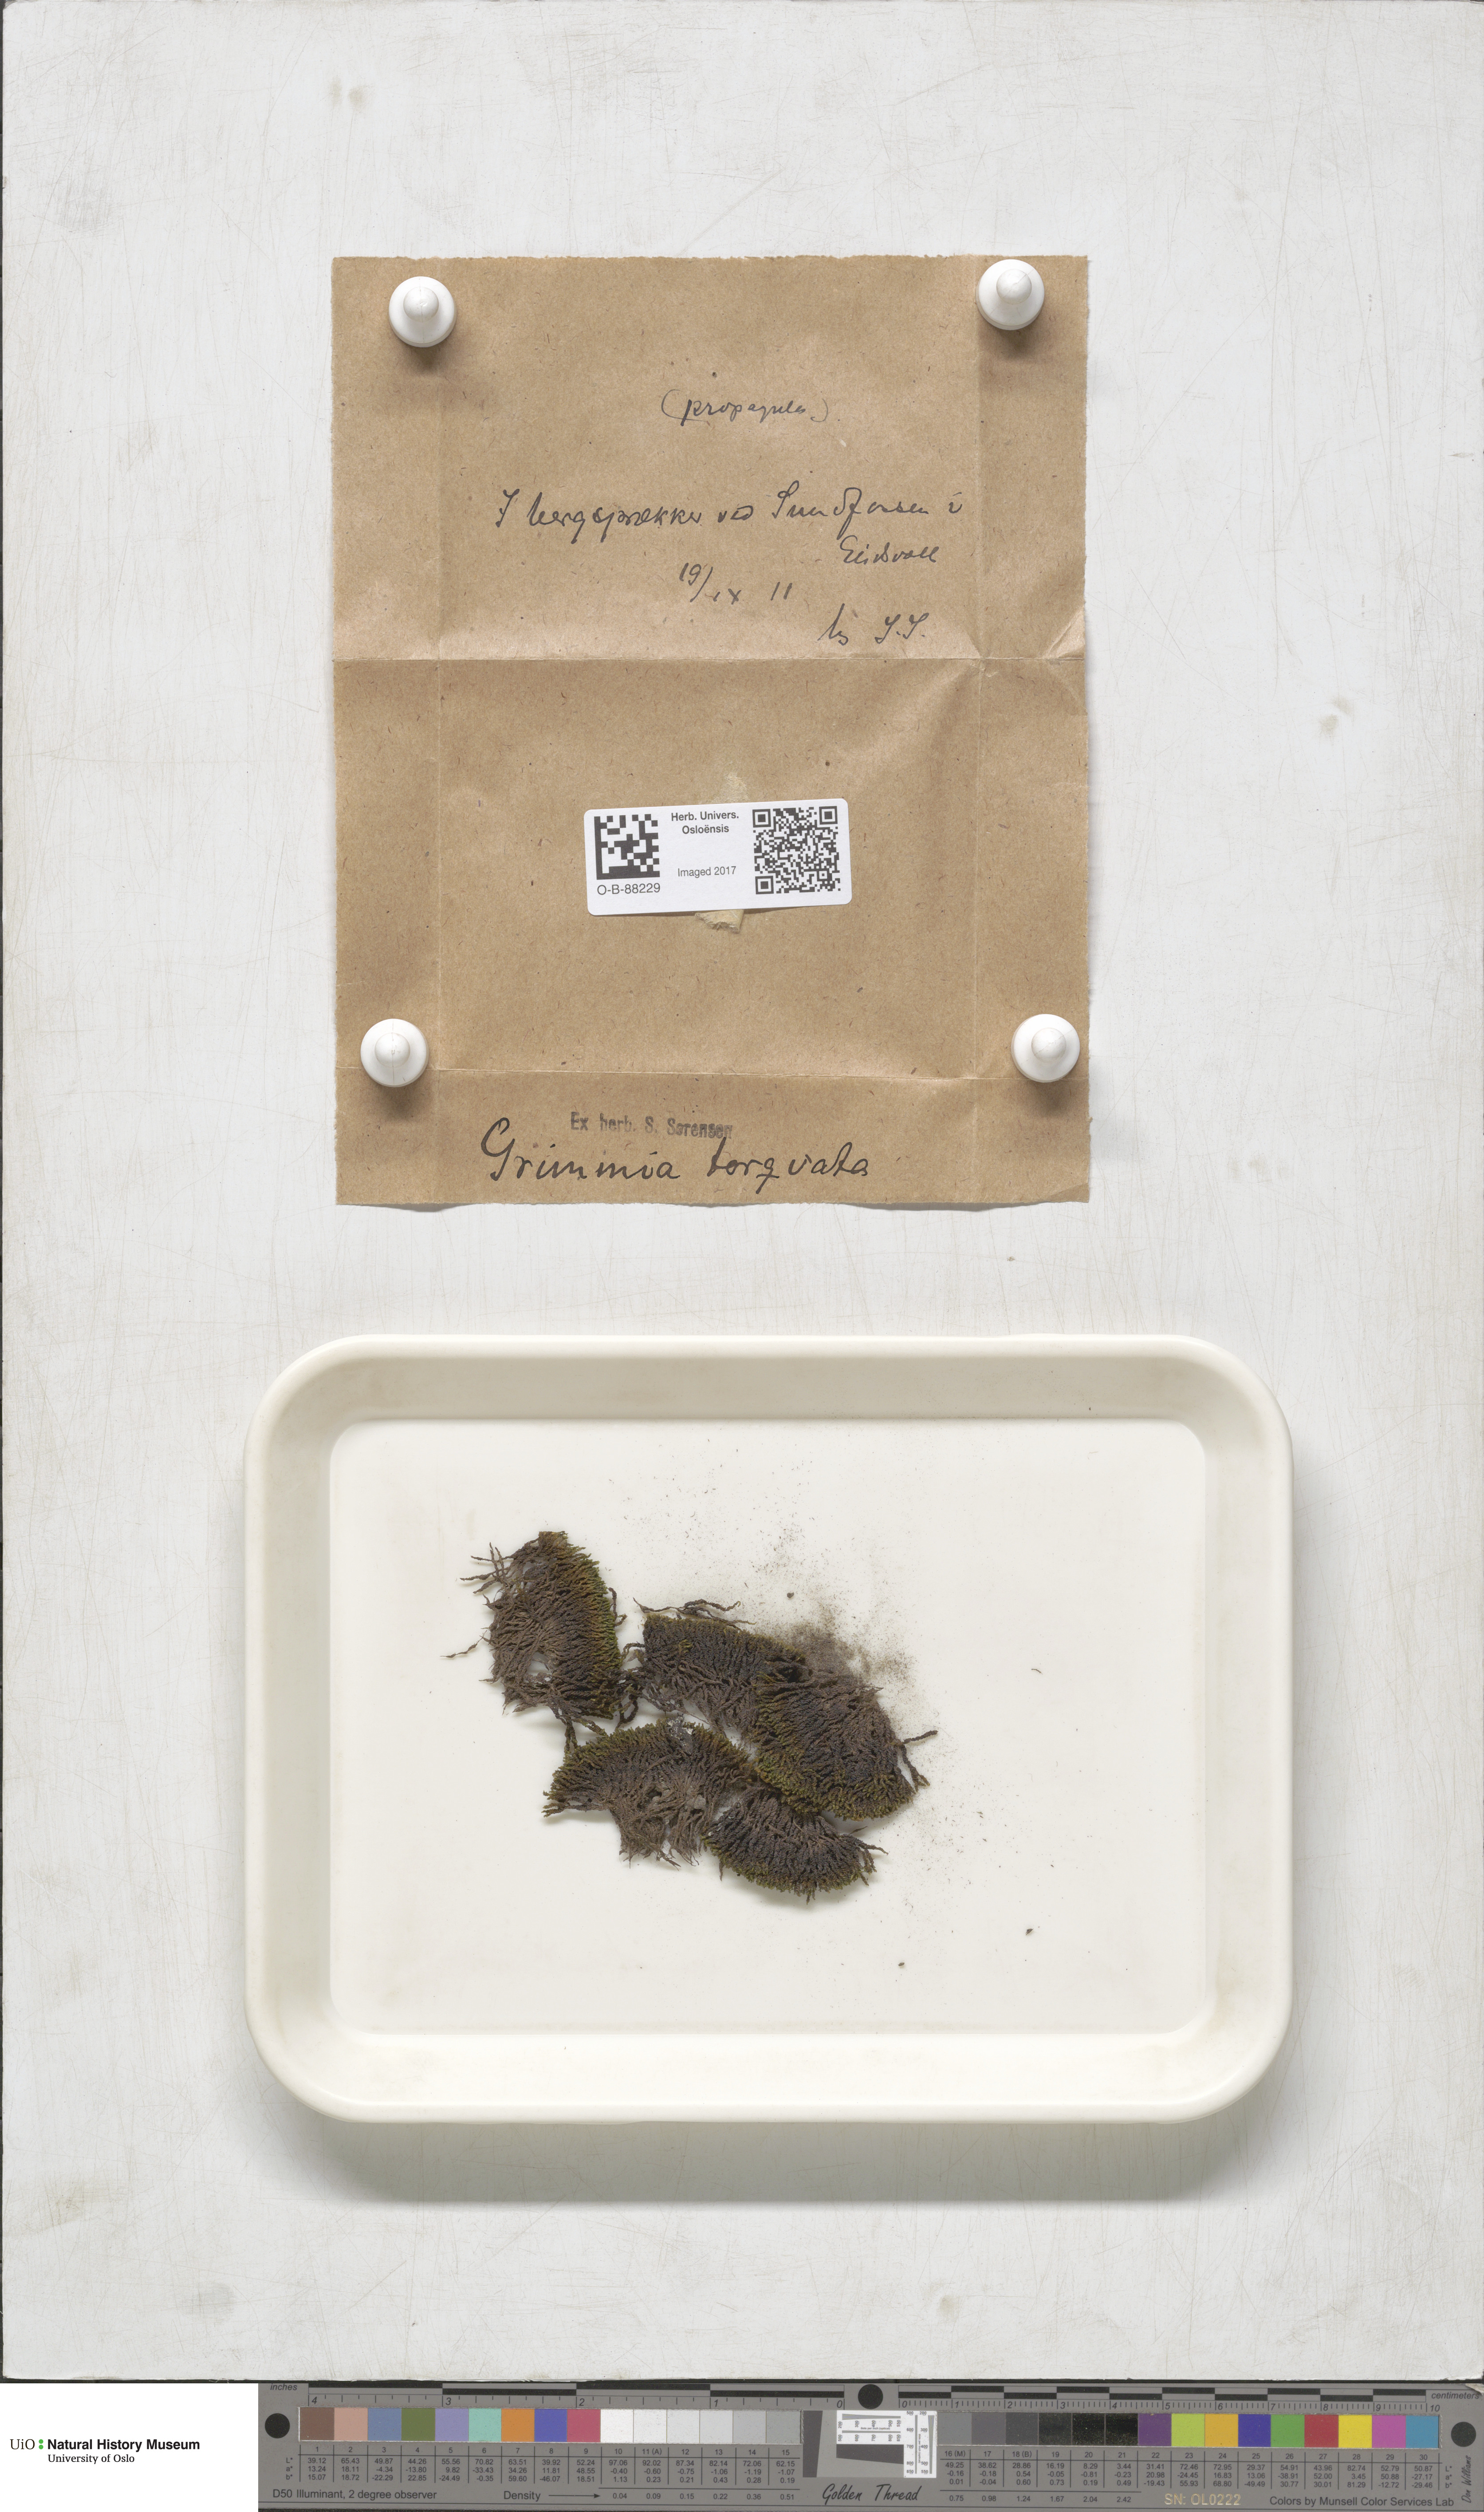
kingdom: Plantae
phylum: Bryophyta
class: Bryopsida
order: Grimmiales
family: Grimmiaceae
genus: Grimmia
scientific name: Grimmia torquata
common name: Twisted grimmia
